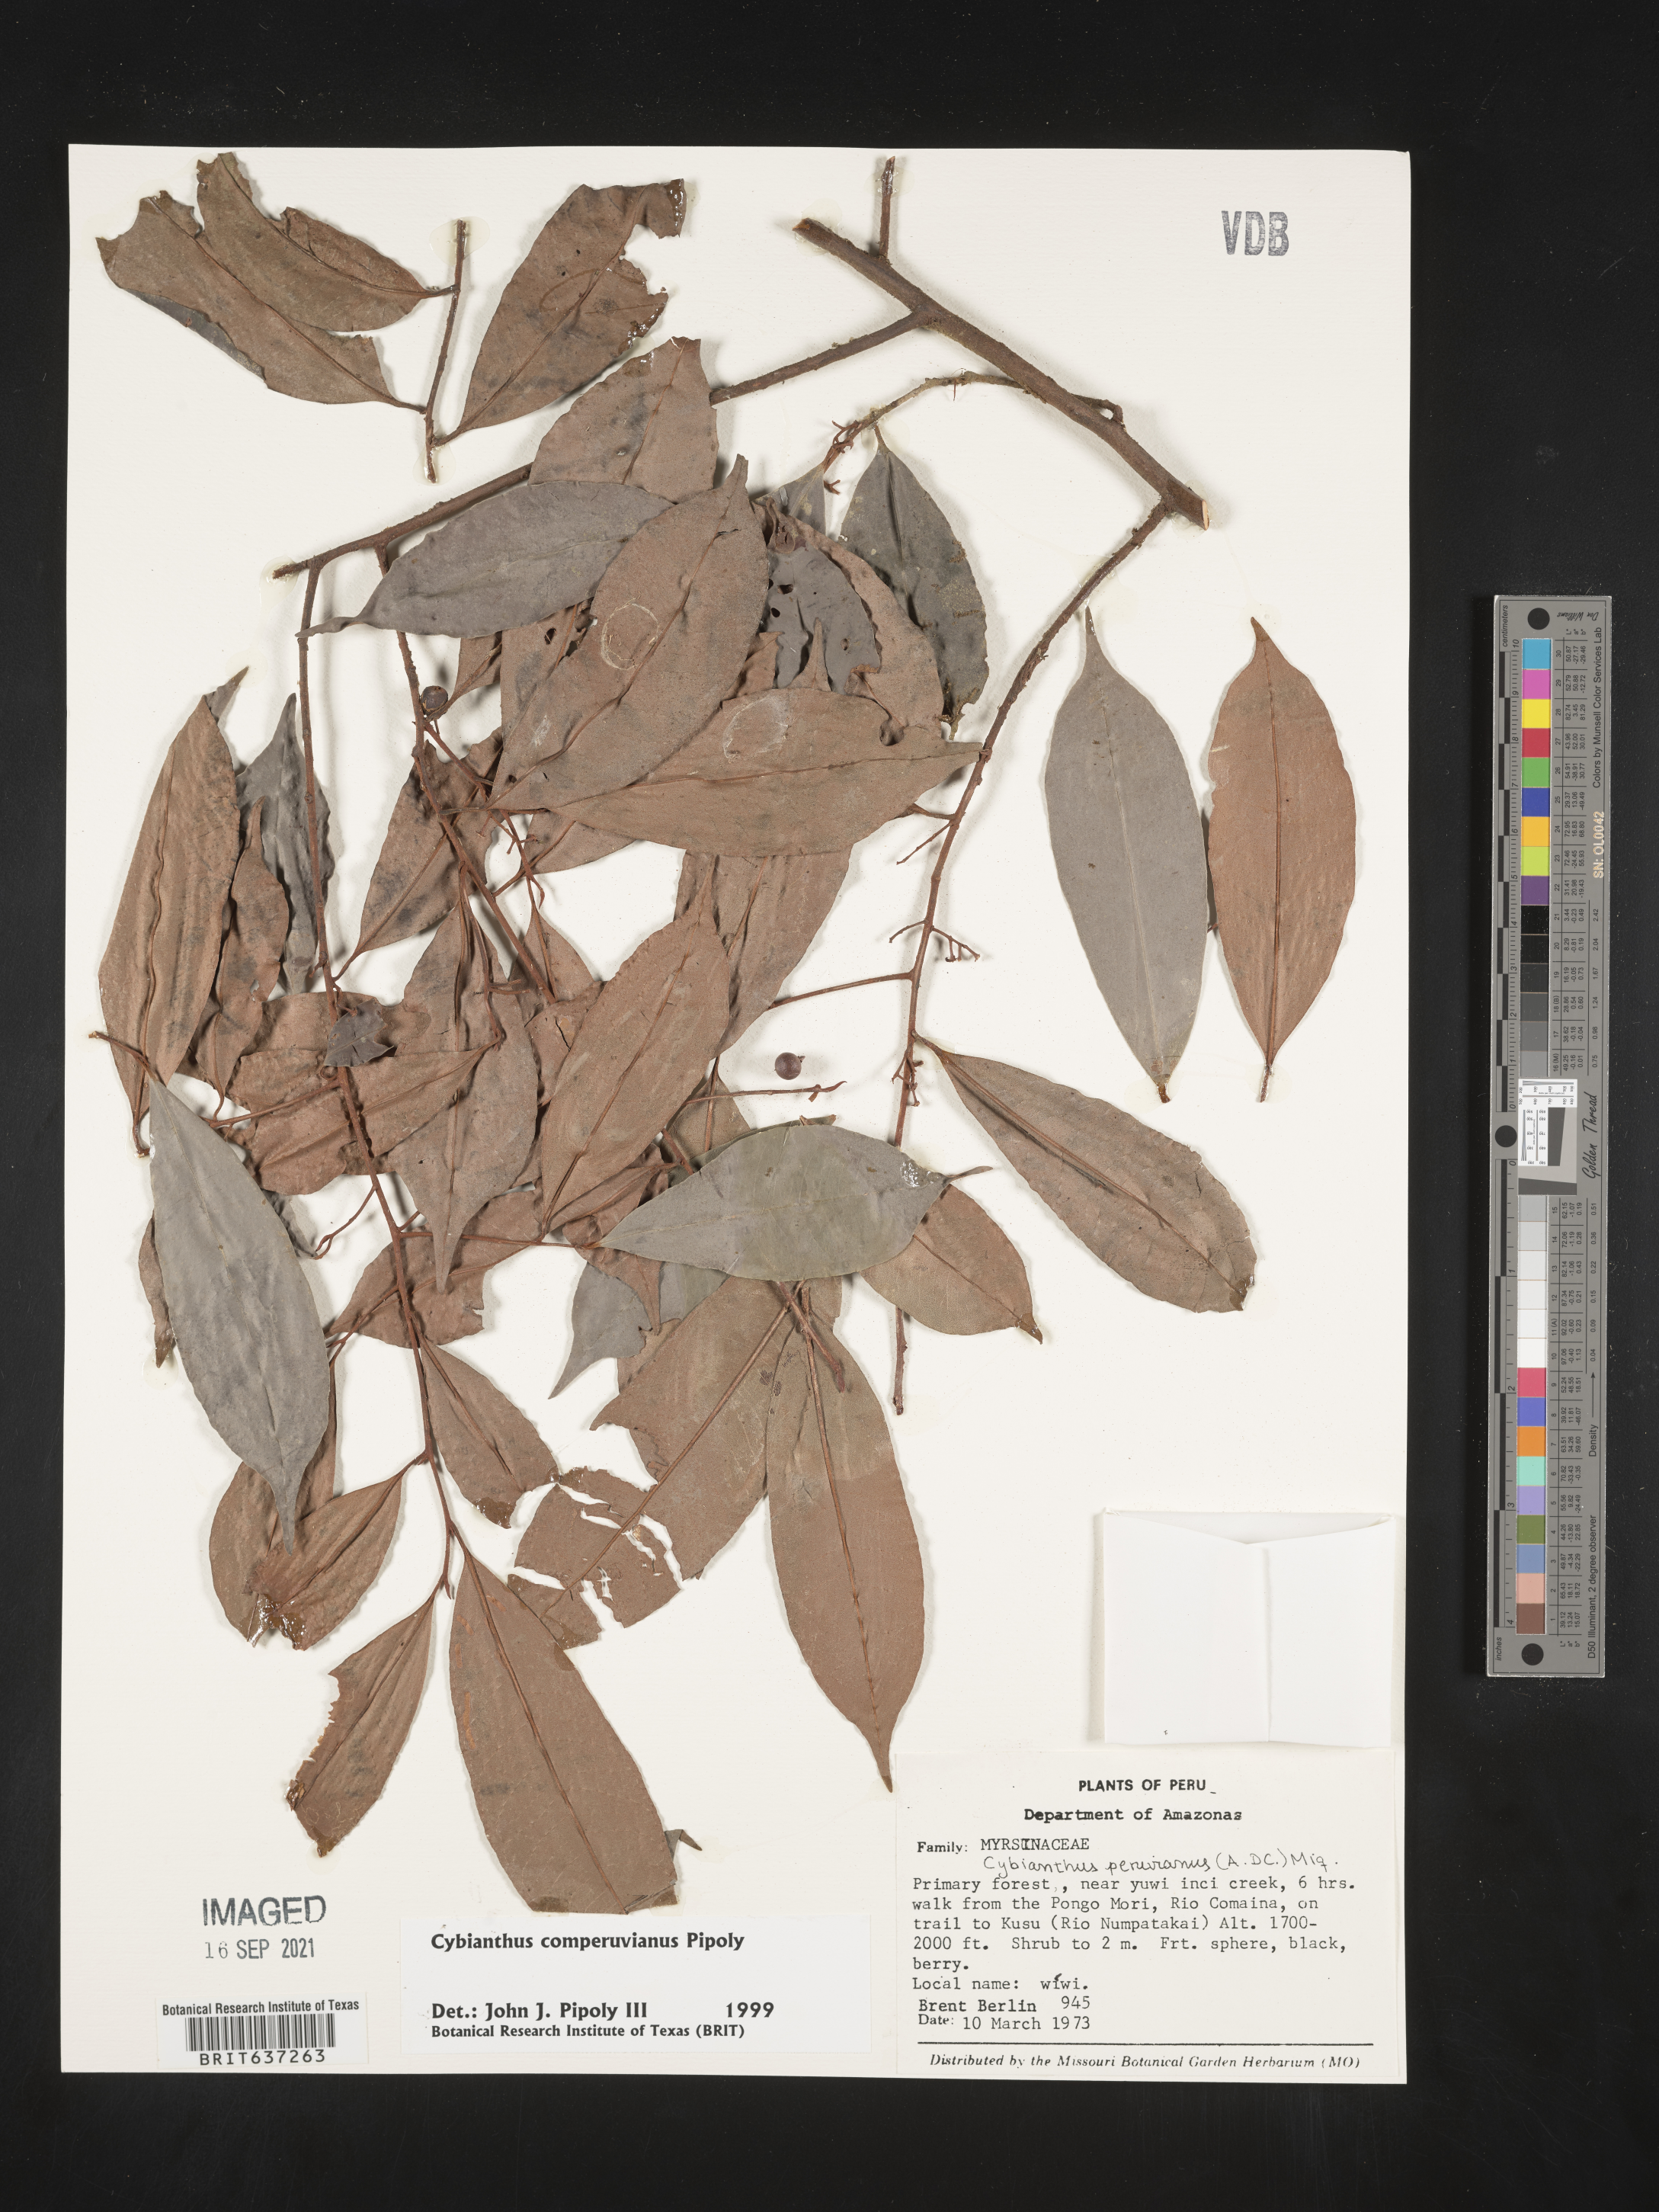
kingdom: Plantae
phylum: Tracheophyta
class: Magnoliopsida
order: Ericales
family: Primulaceae
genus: Cybianthus
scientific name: Cybianthus
